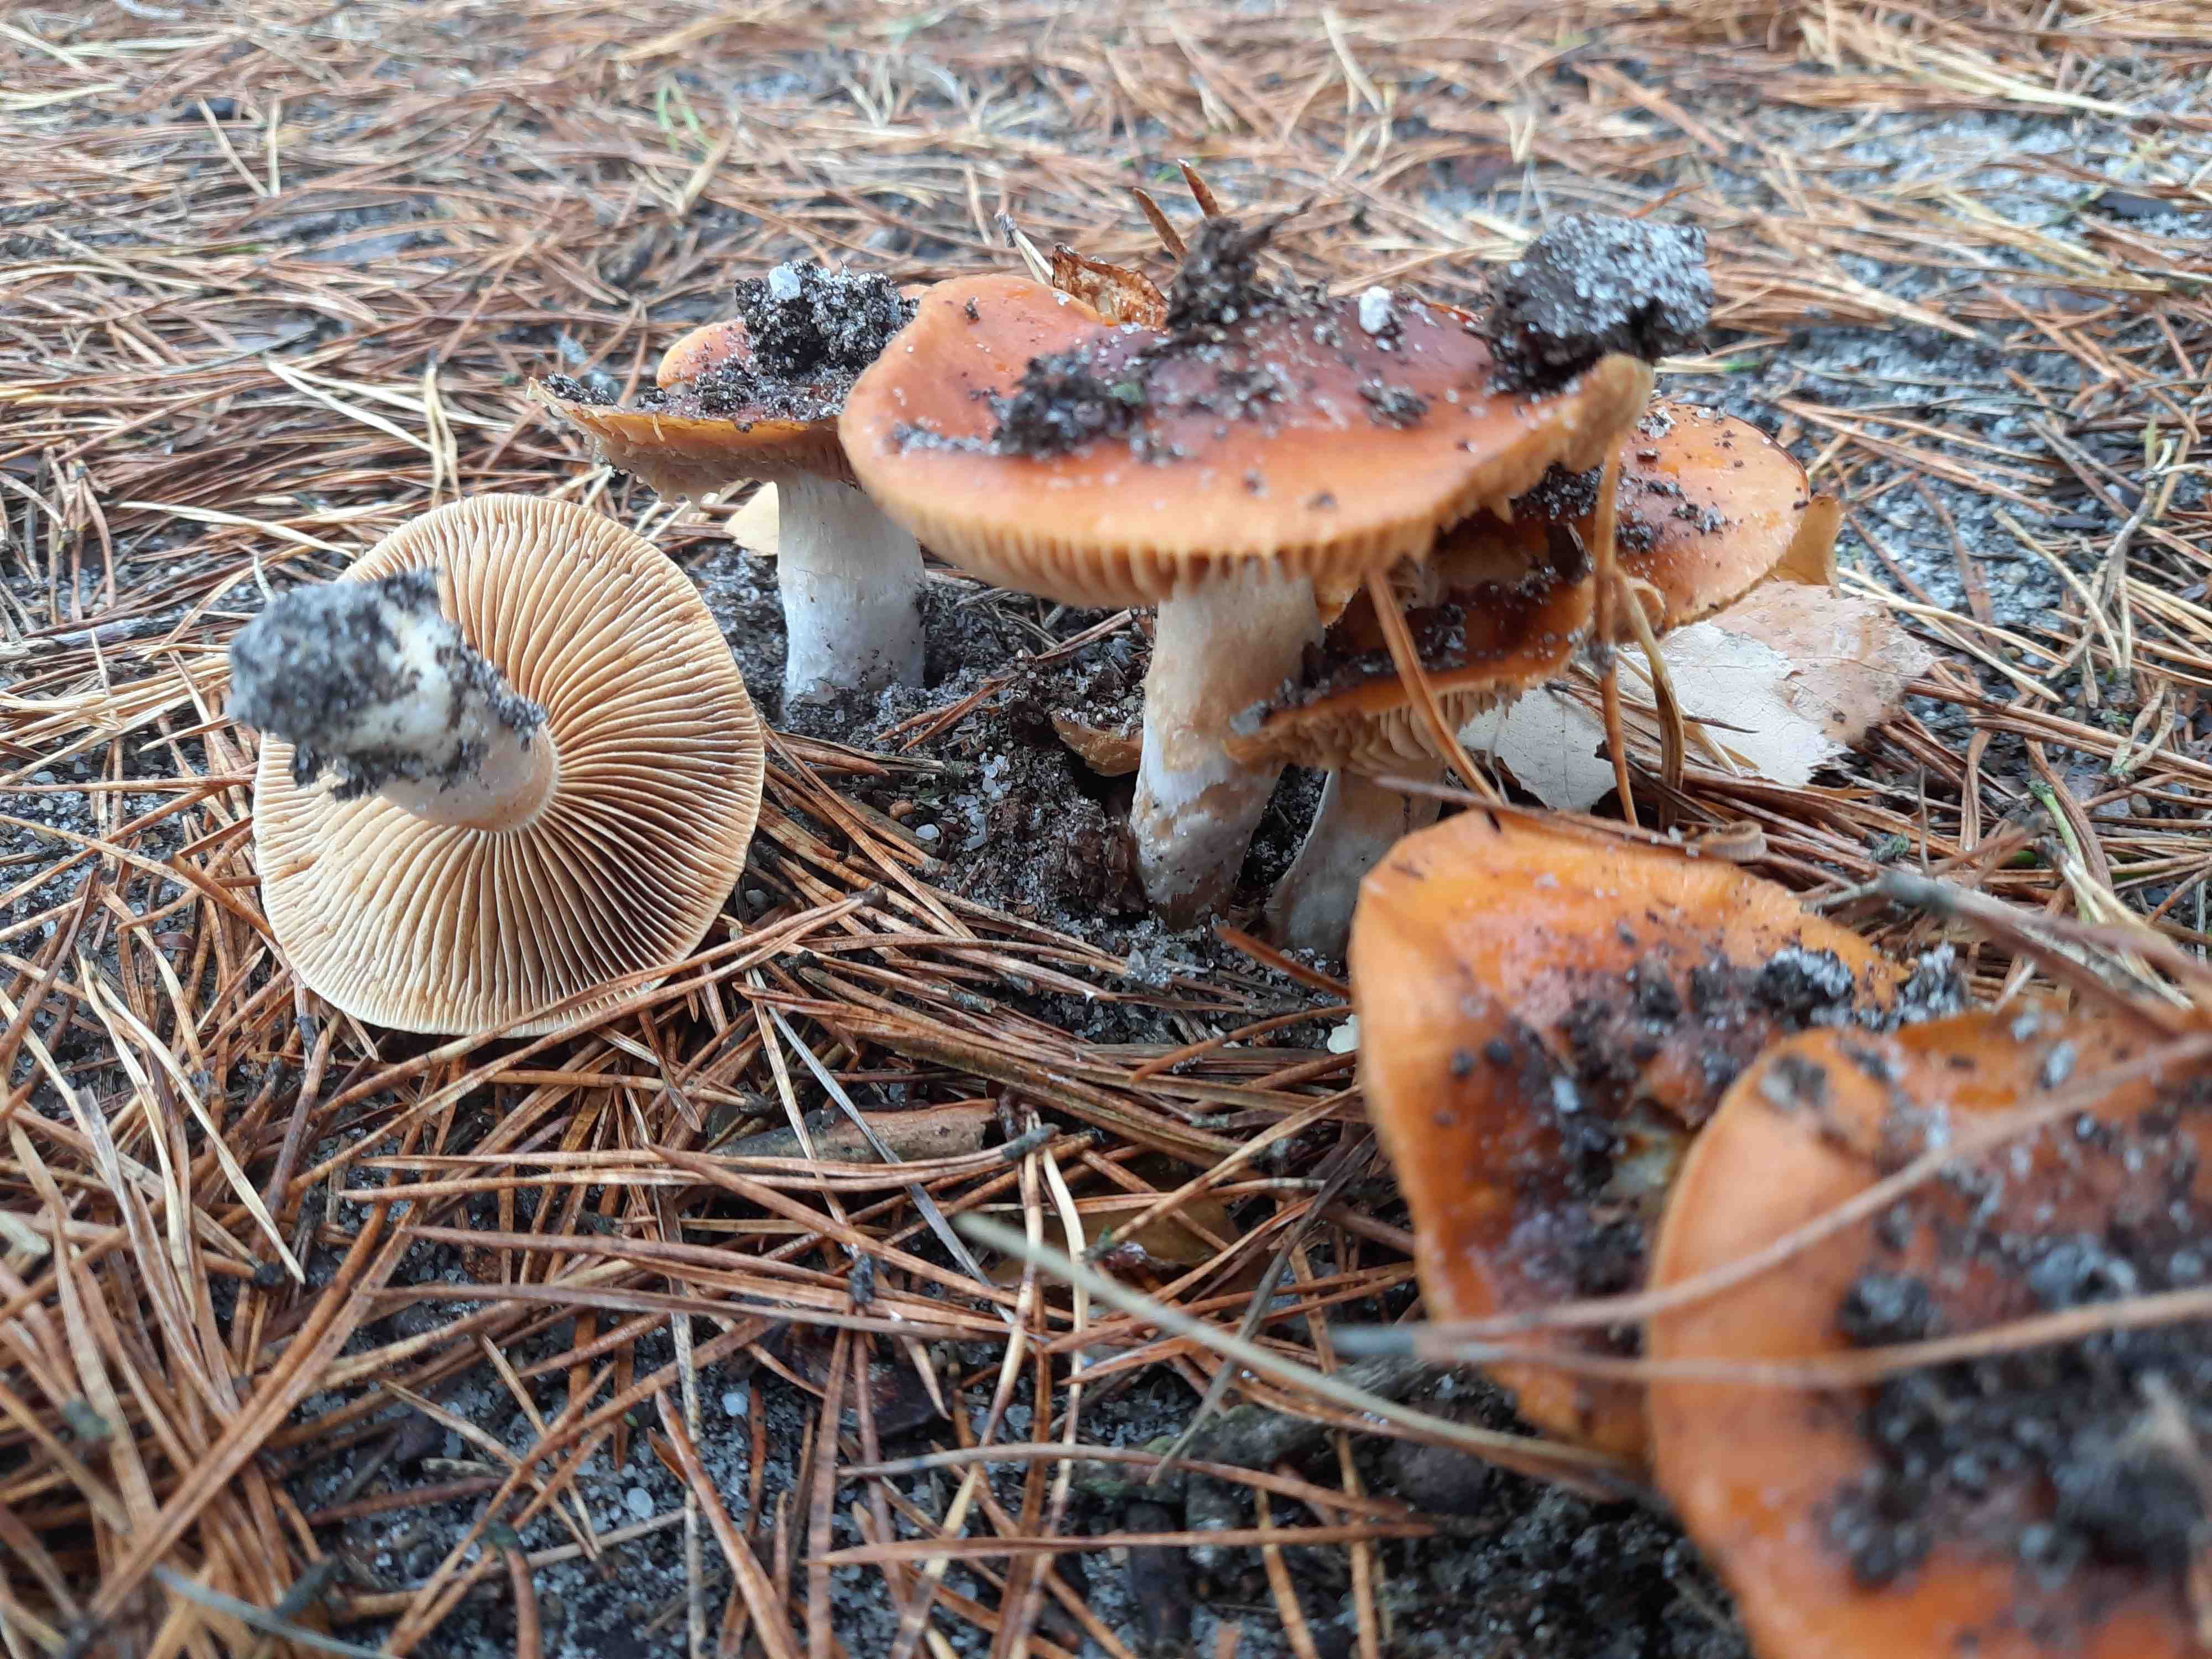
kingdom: Fungi
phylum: Basidiomycota
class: Agaricomycetes
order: Agaricales
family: Cortinariaceae
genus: Cortinarius
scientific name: Cortinarius mucosus
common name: kastaniebrun slørhat
